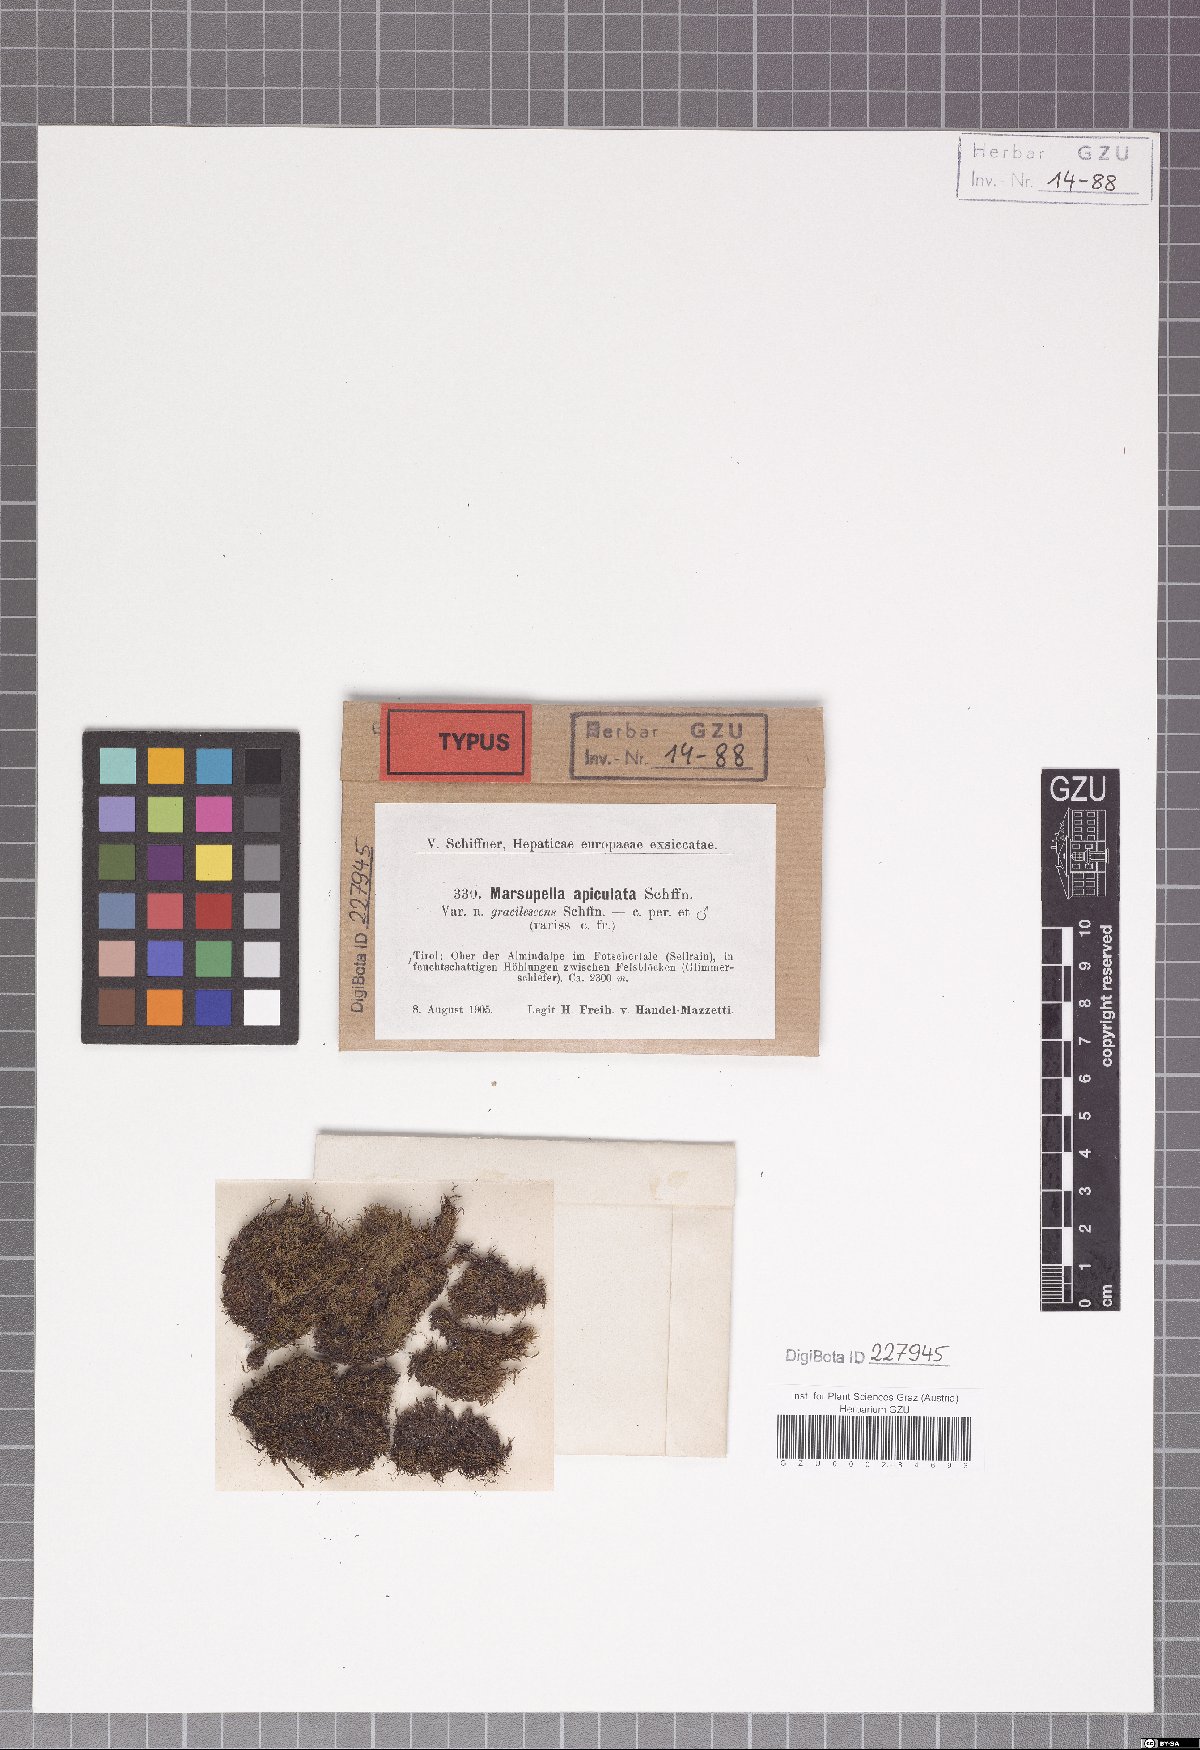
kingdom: Plantae
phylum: Marchantiophyta
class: Jungermanniopsida
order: Jungermanniales
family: Gymnomitriaceae
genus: Marsupella
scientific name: Marsupella apiculata
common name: Pointed frostwort
